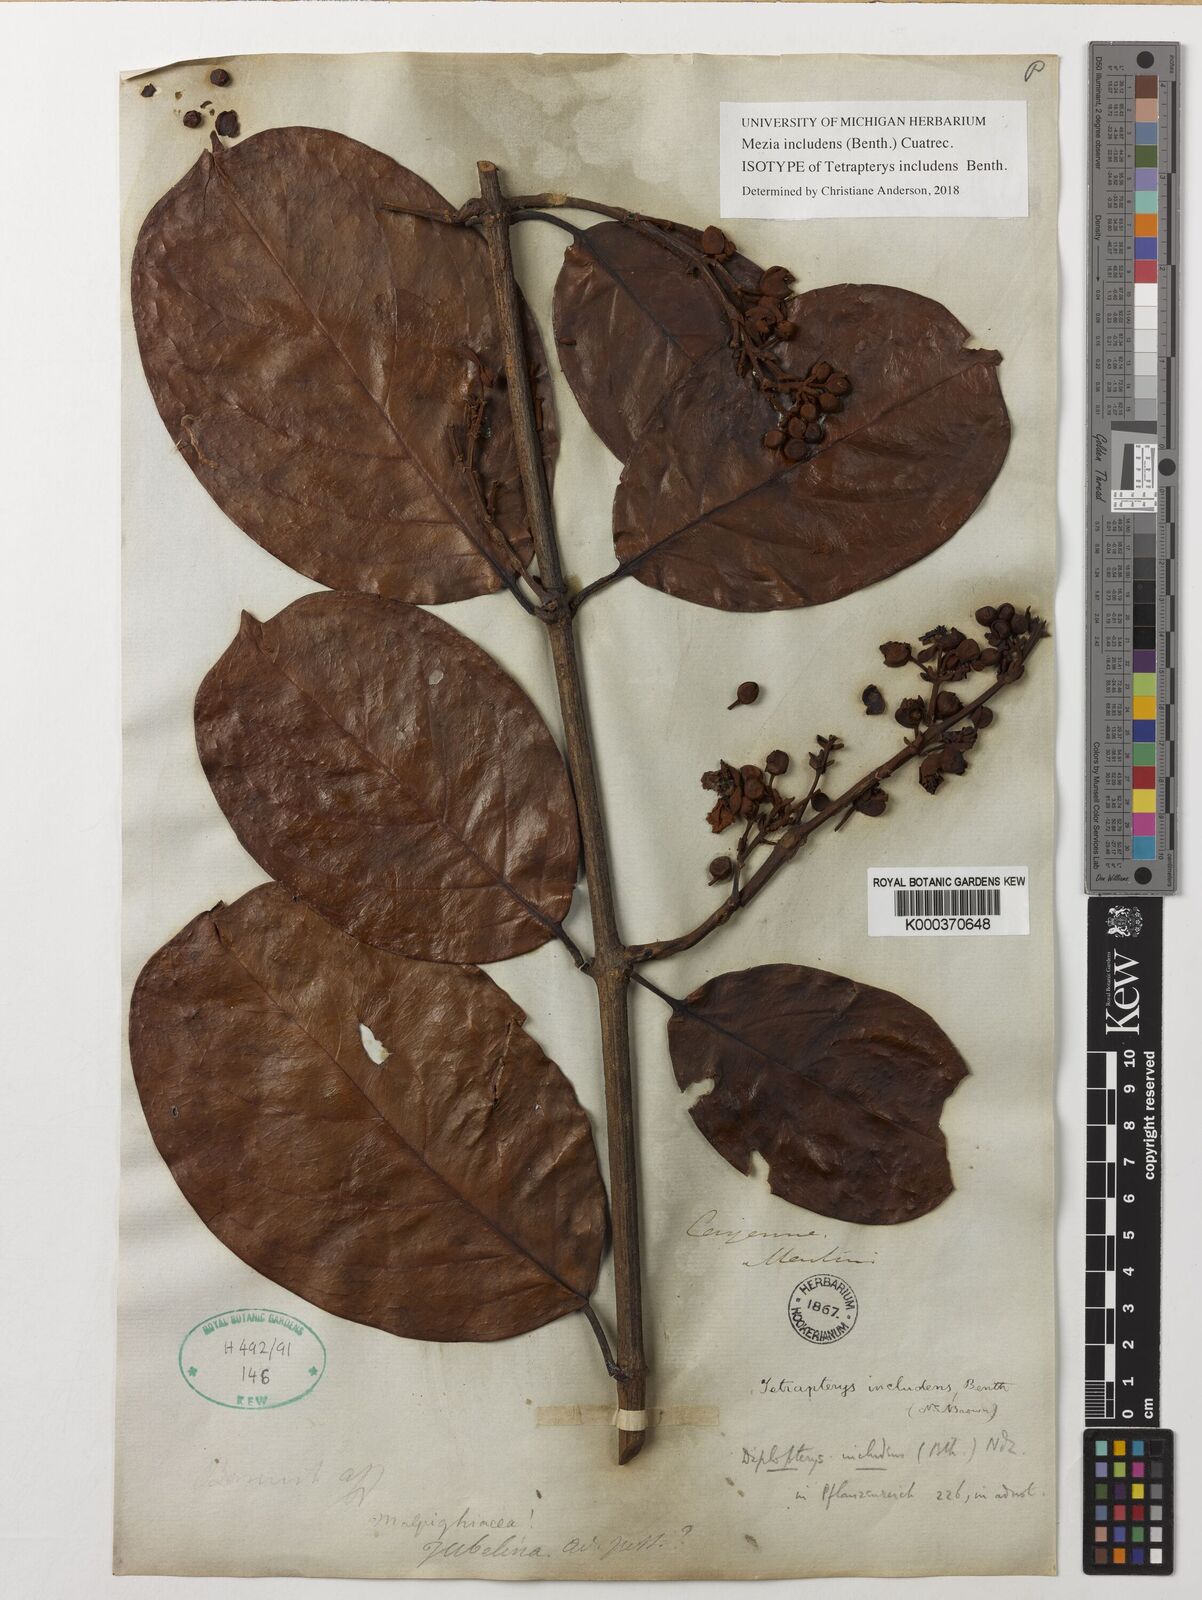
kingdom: Plantae
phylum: Tracheophyta
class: Magnoliopsida
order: Malpighiales
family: Malpighiaceae
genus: Mezia
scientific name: Mezia includens
